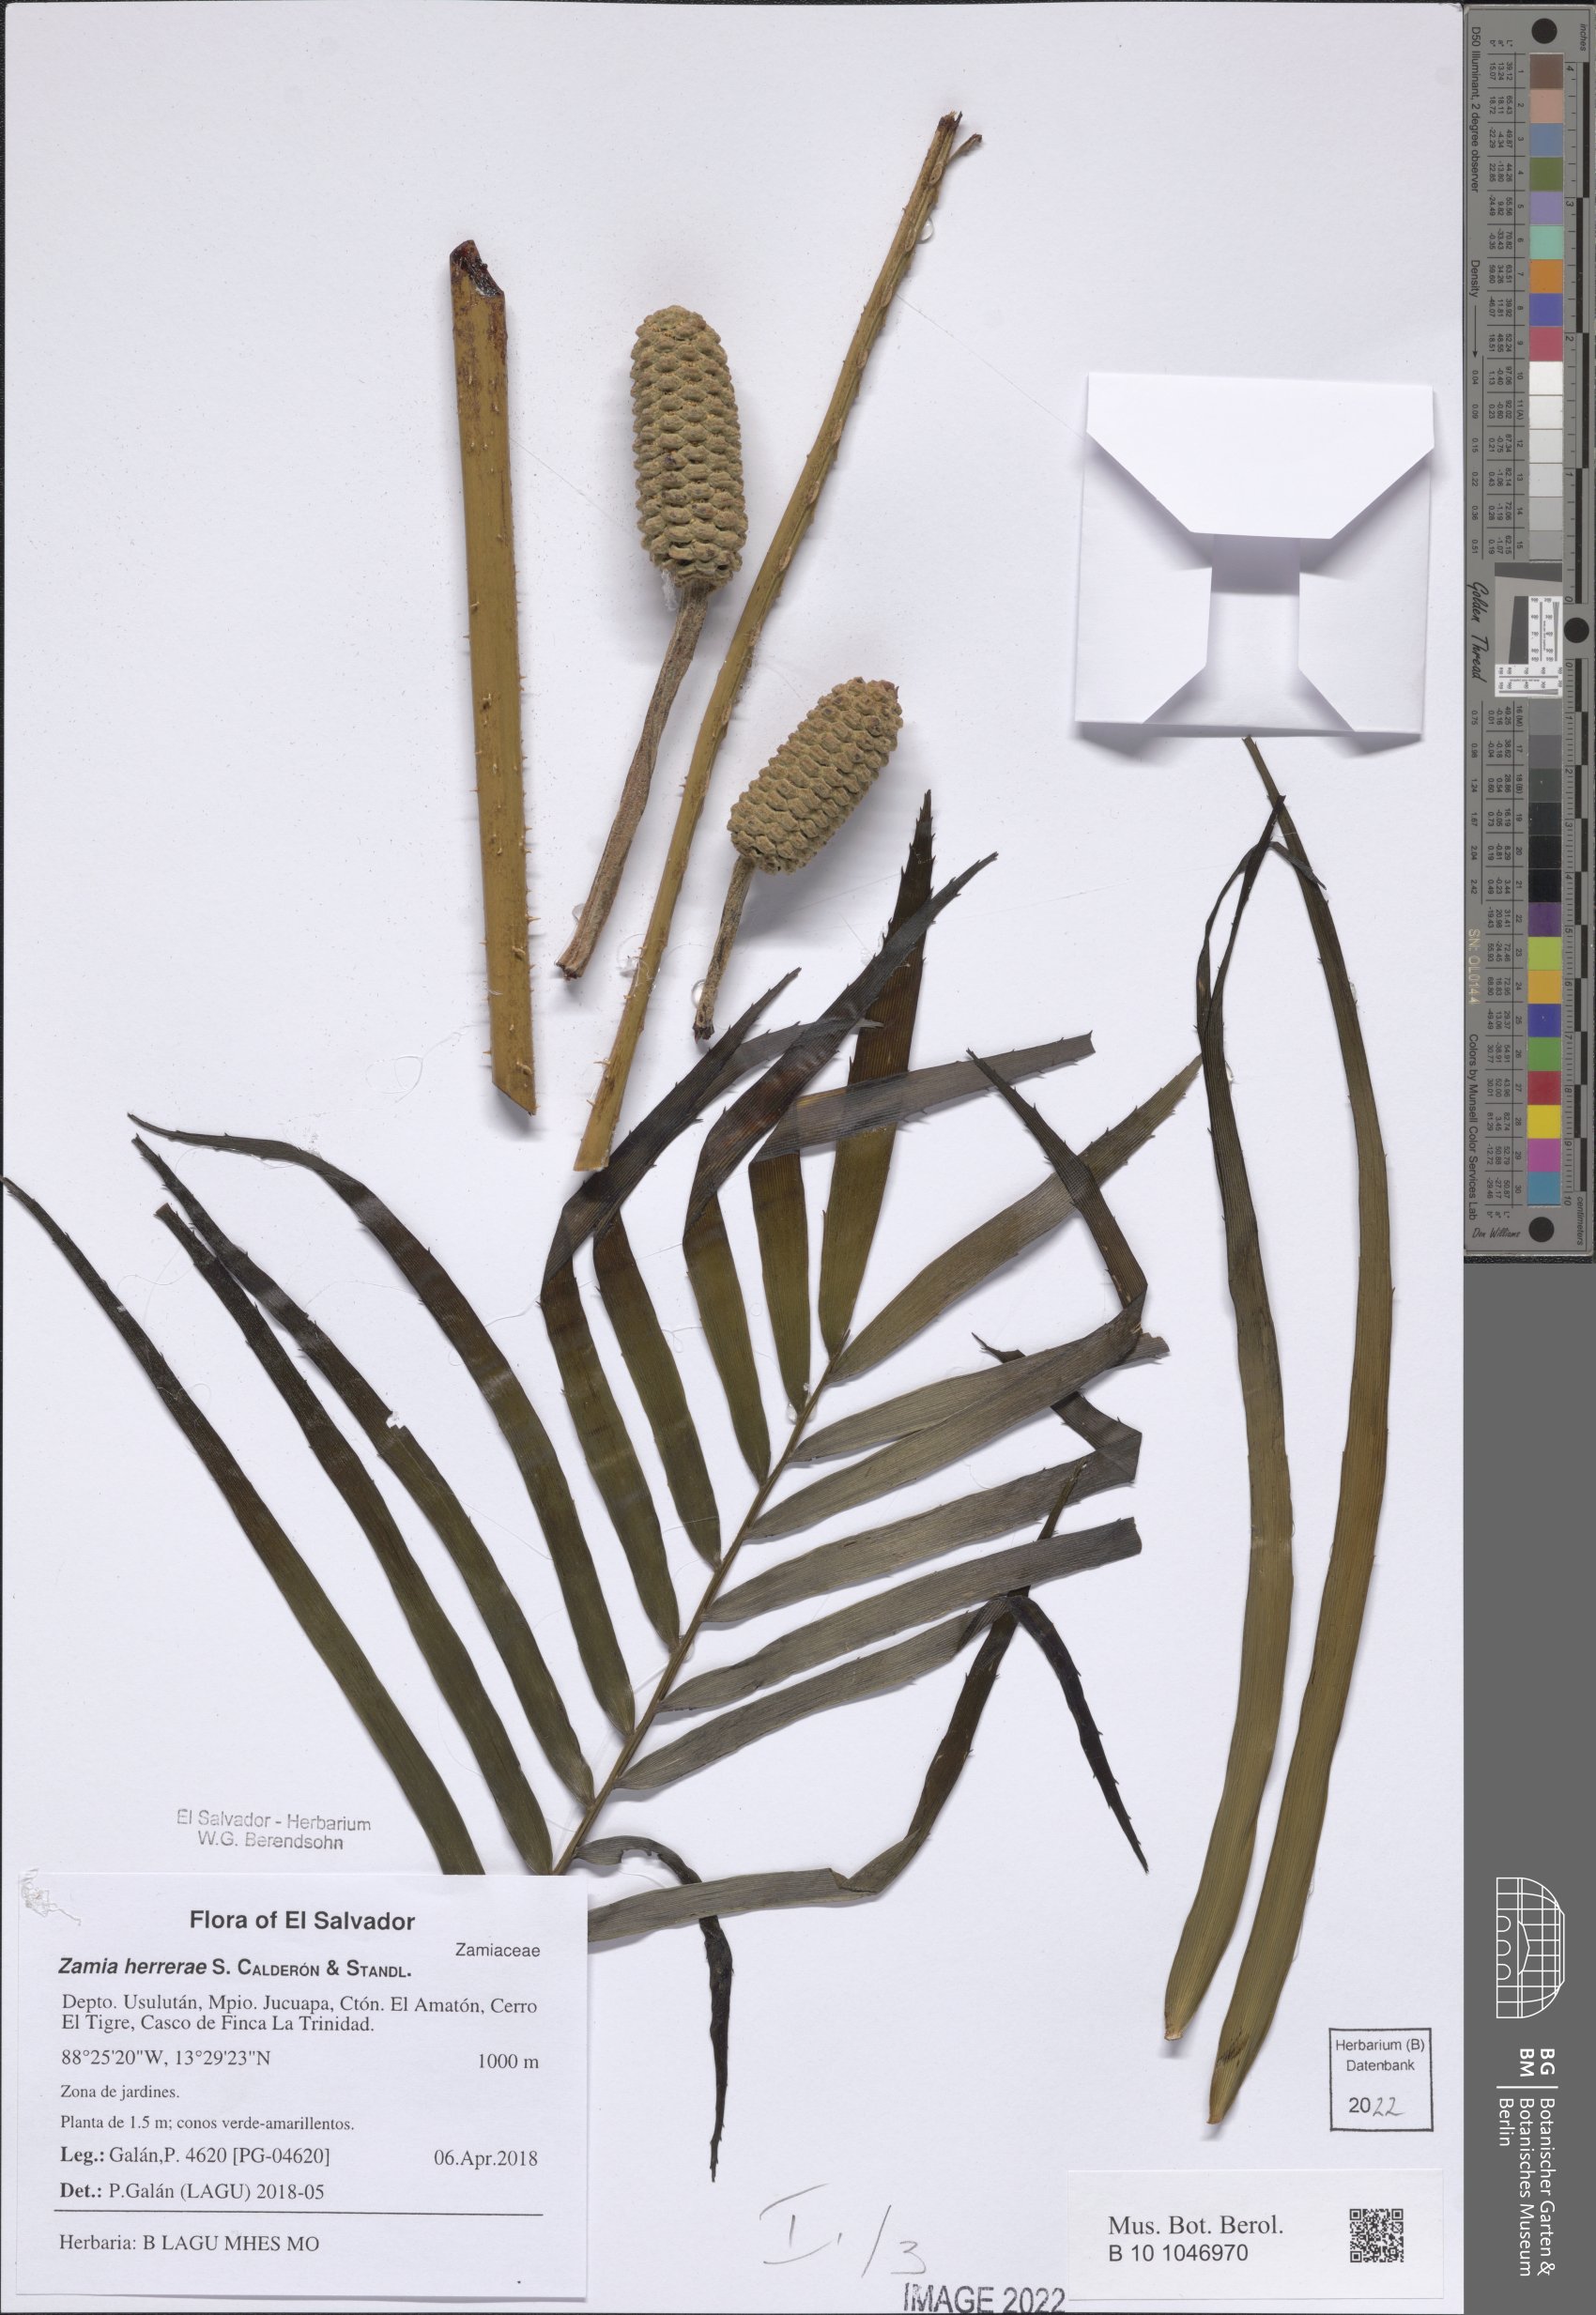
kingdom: Plantae
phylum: Tracheophyta
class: Cycadopsida
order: Cycadales
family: Zamiaceae
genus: Zamia
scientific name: Zamia herrerae
